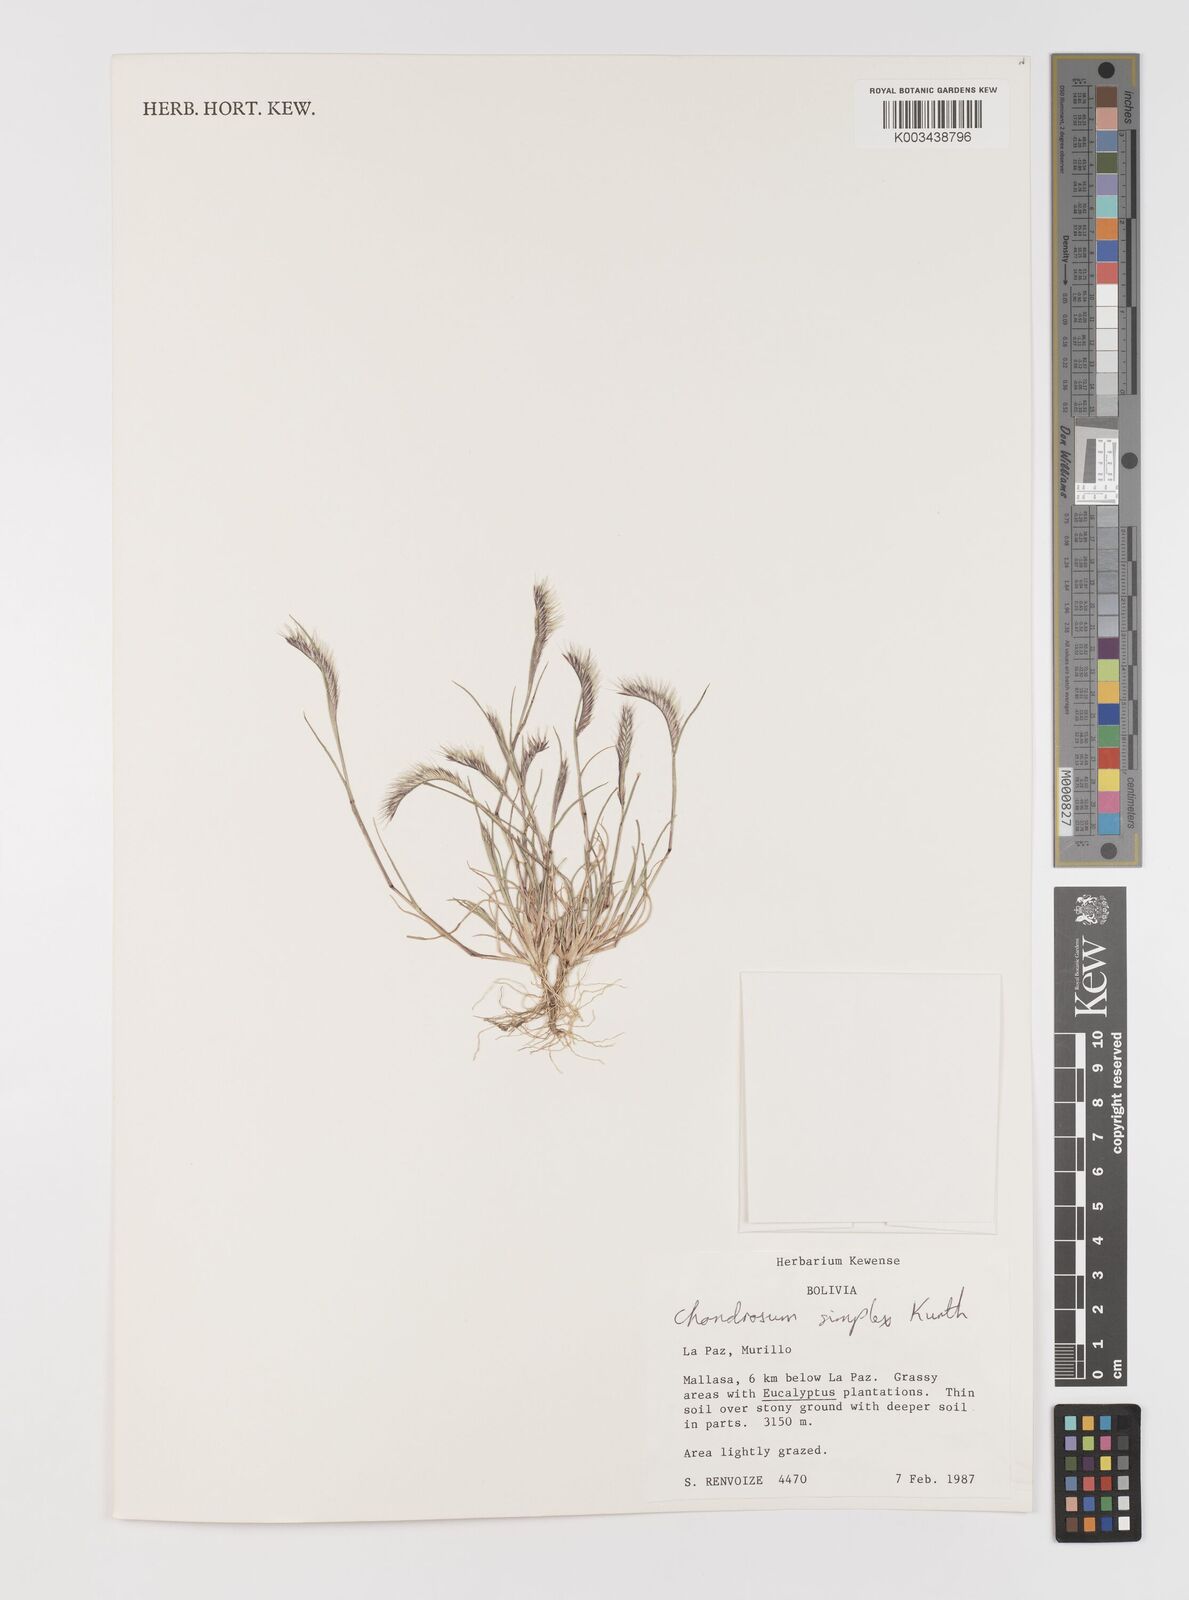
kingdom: Plantae
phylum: Tracheophyta
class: Liliopsida
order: Poales
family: Poaceae
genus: Bouteloua
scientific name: Bouteloua simplex
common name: Mat grama
